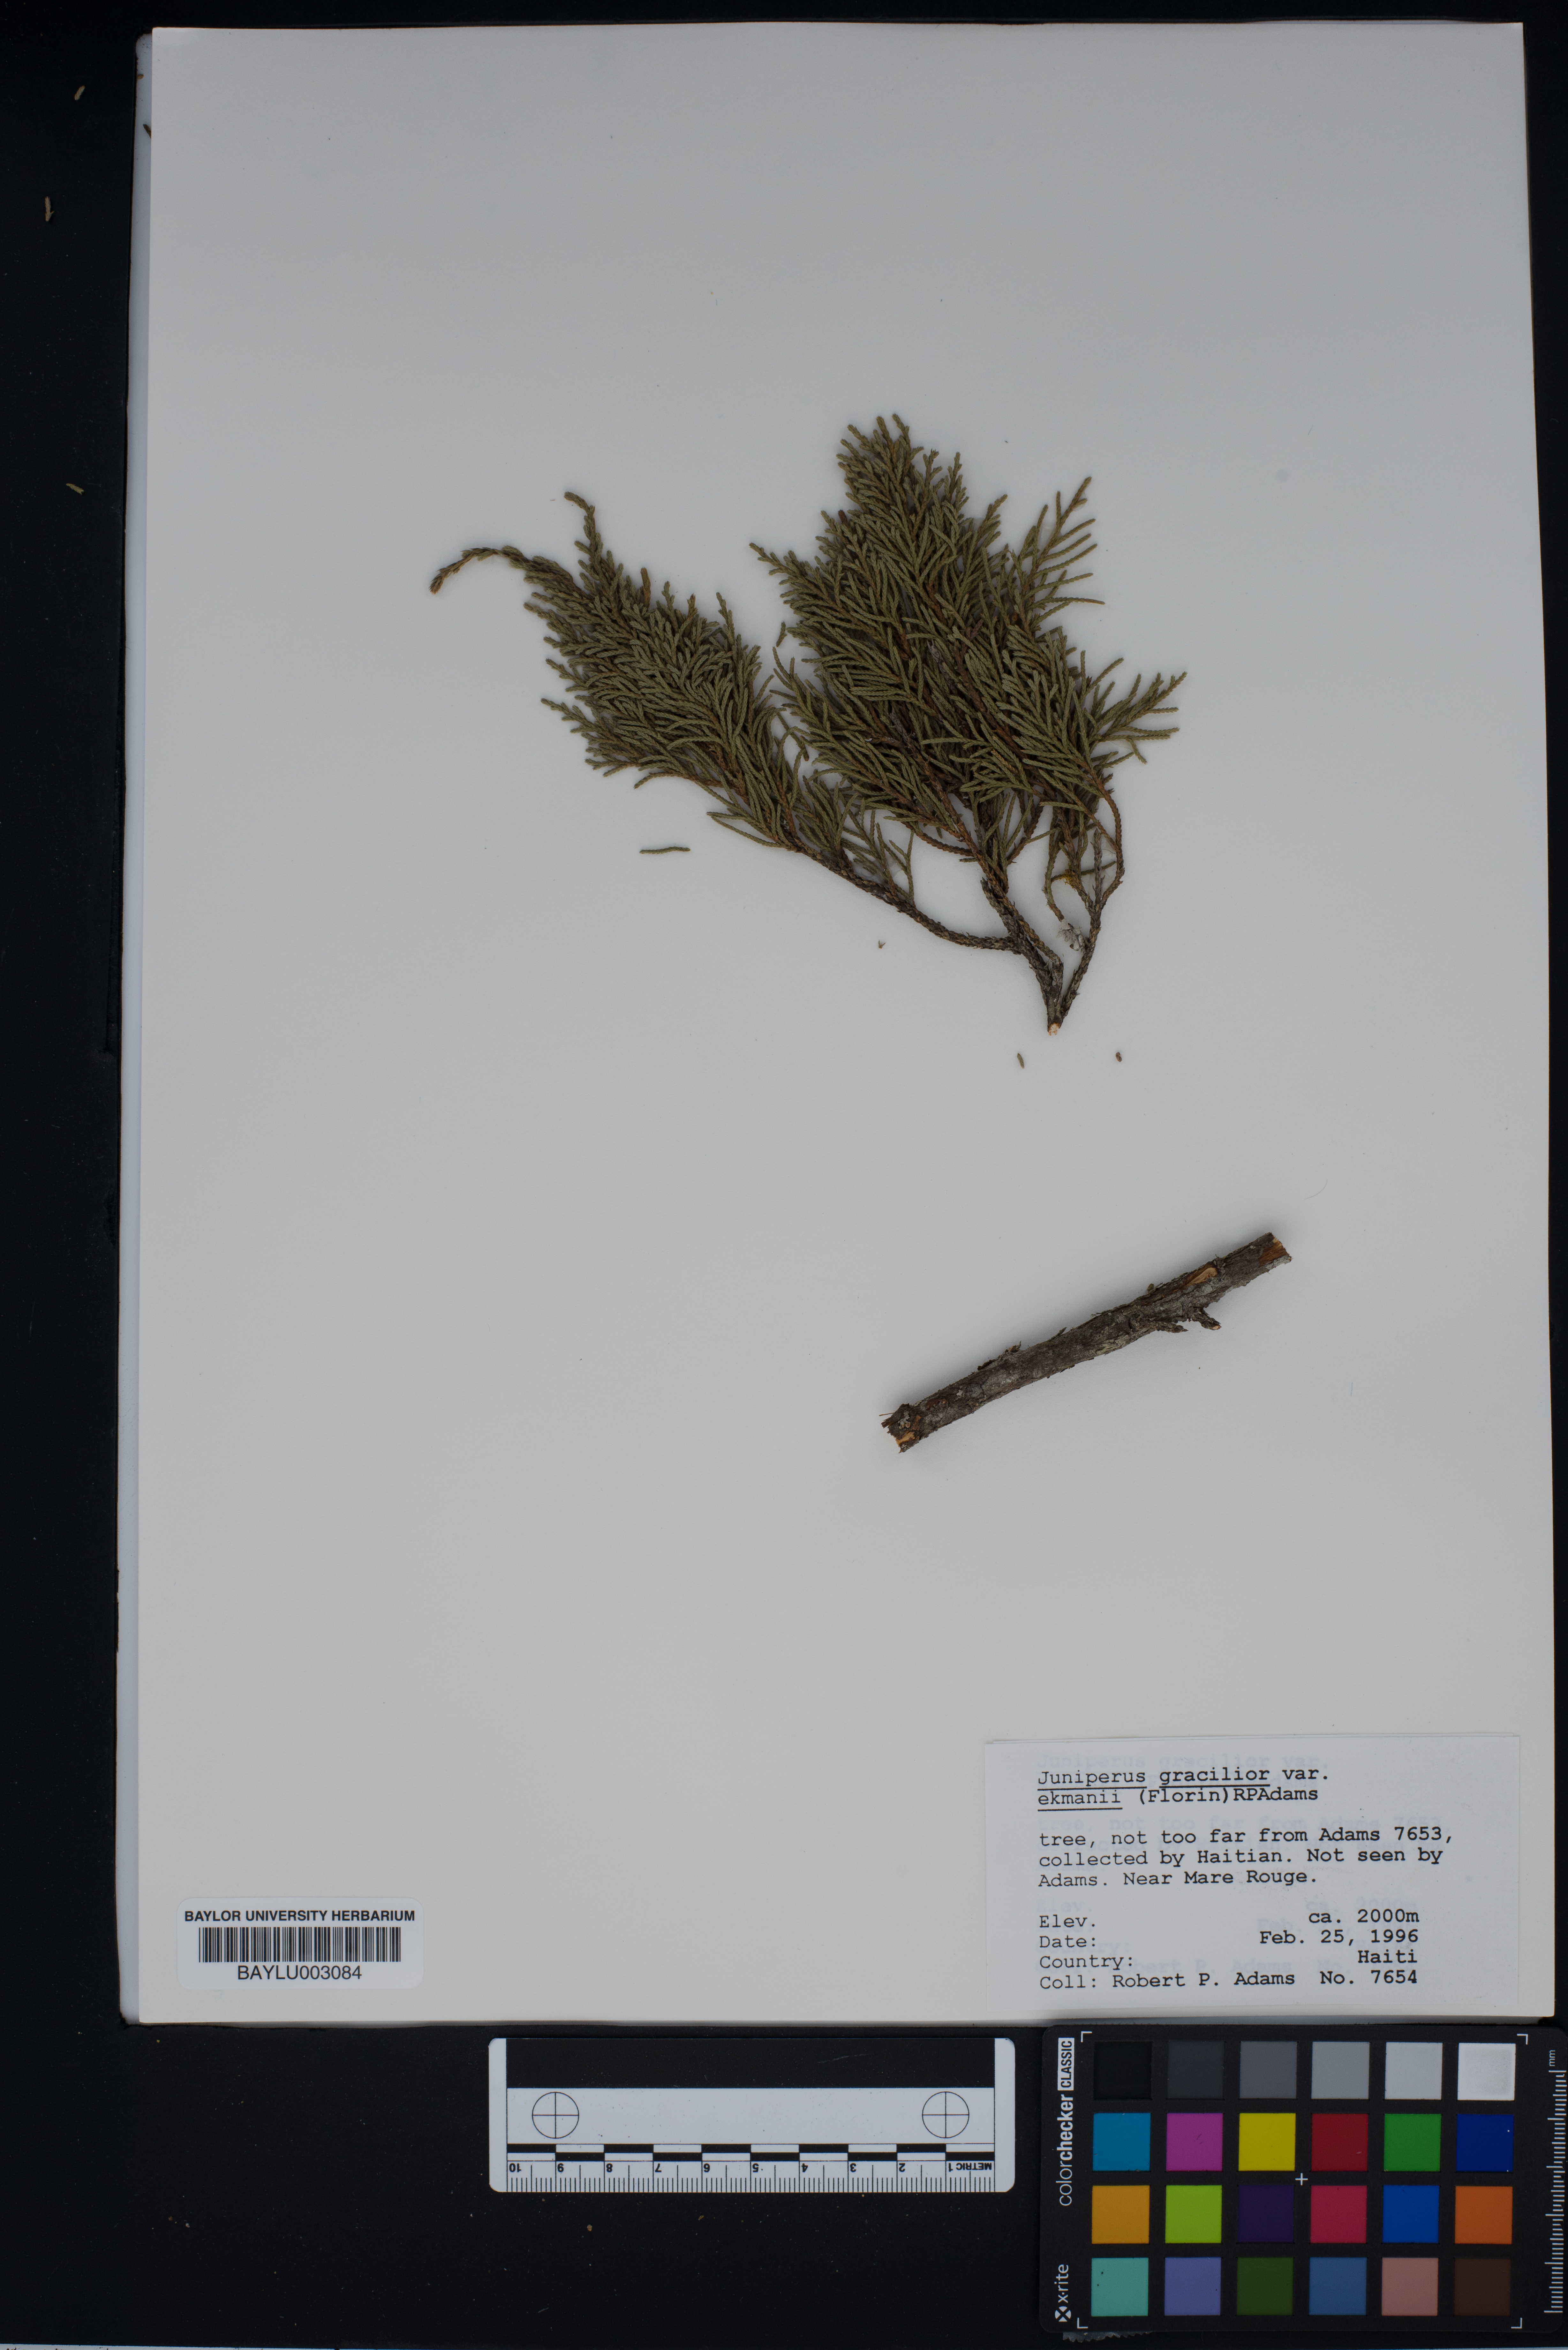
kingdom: Plantae
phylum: Tracheophyta
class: Pinopsida
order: Pinales
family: Cupressaceae
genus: Juniperus
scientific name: Juniperus gracilior
